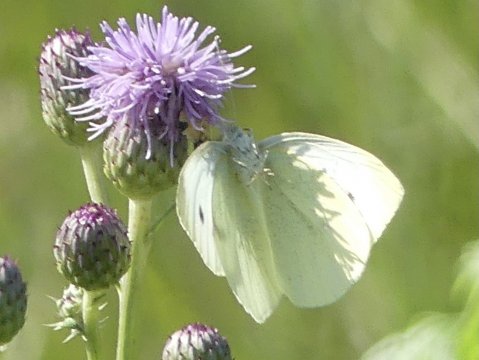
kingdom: Animalia
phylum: Arthropoda
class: Insecta
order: Lepidoptera
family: Pieridae
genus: Pieris
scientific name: Pieris rapae
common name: Cabbage White
